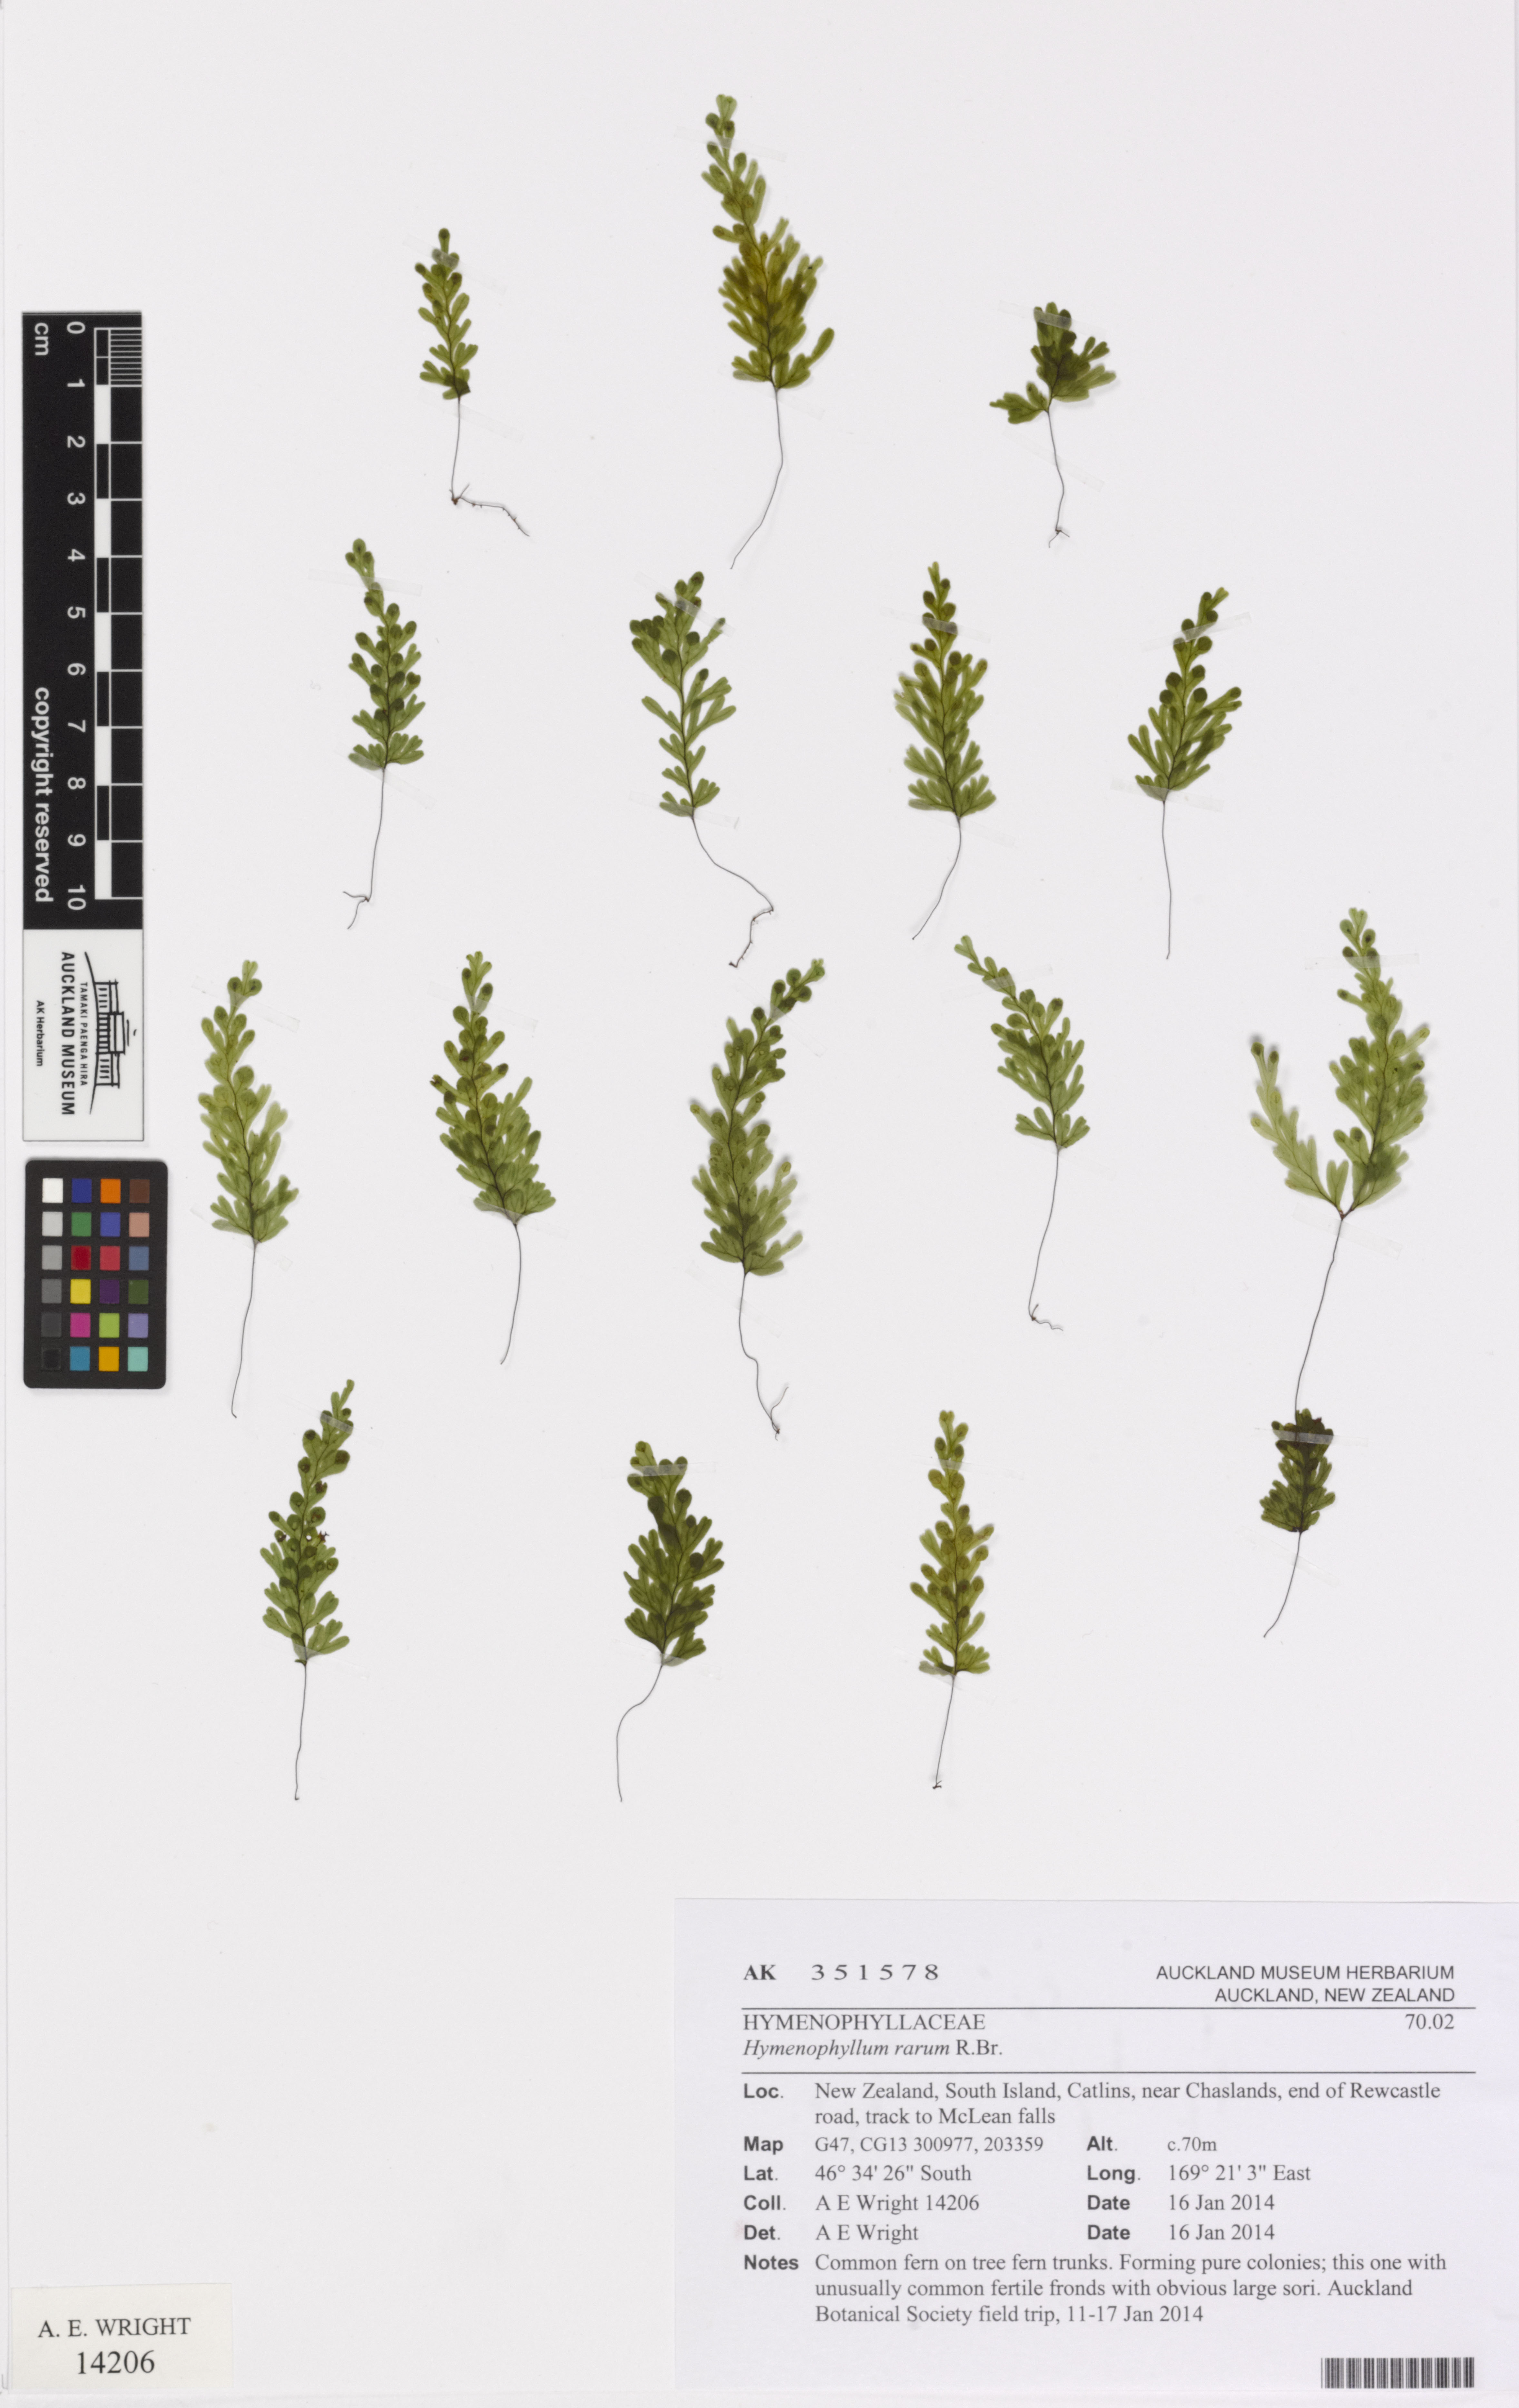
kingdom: Plantae
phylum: Tracheophyta
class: Polypodiopsida
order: Hymenophyllales
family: Hymenophyllaceae
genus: Hymenophyllum
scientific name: Hymenophyllum rarum
